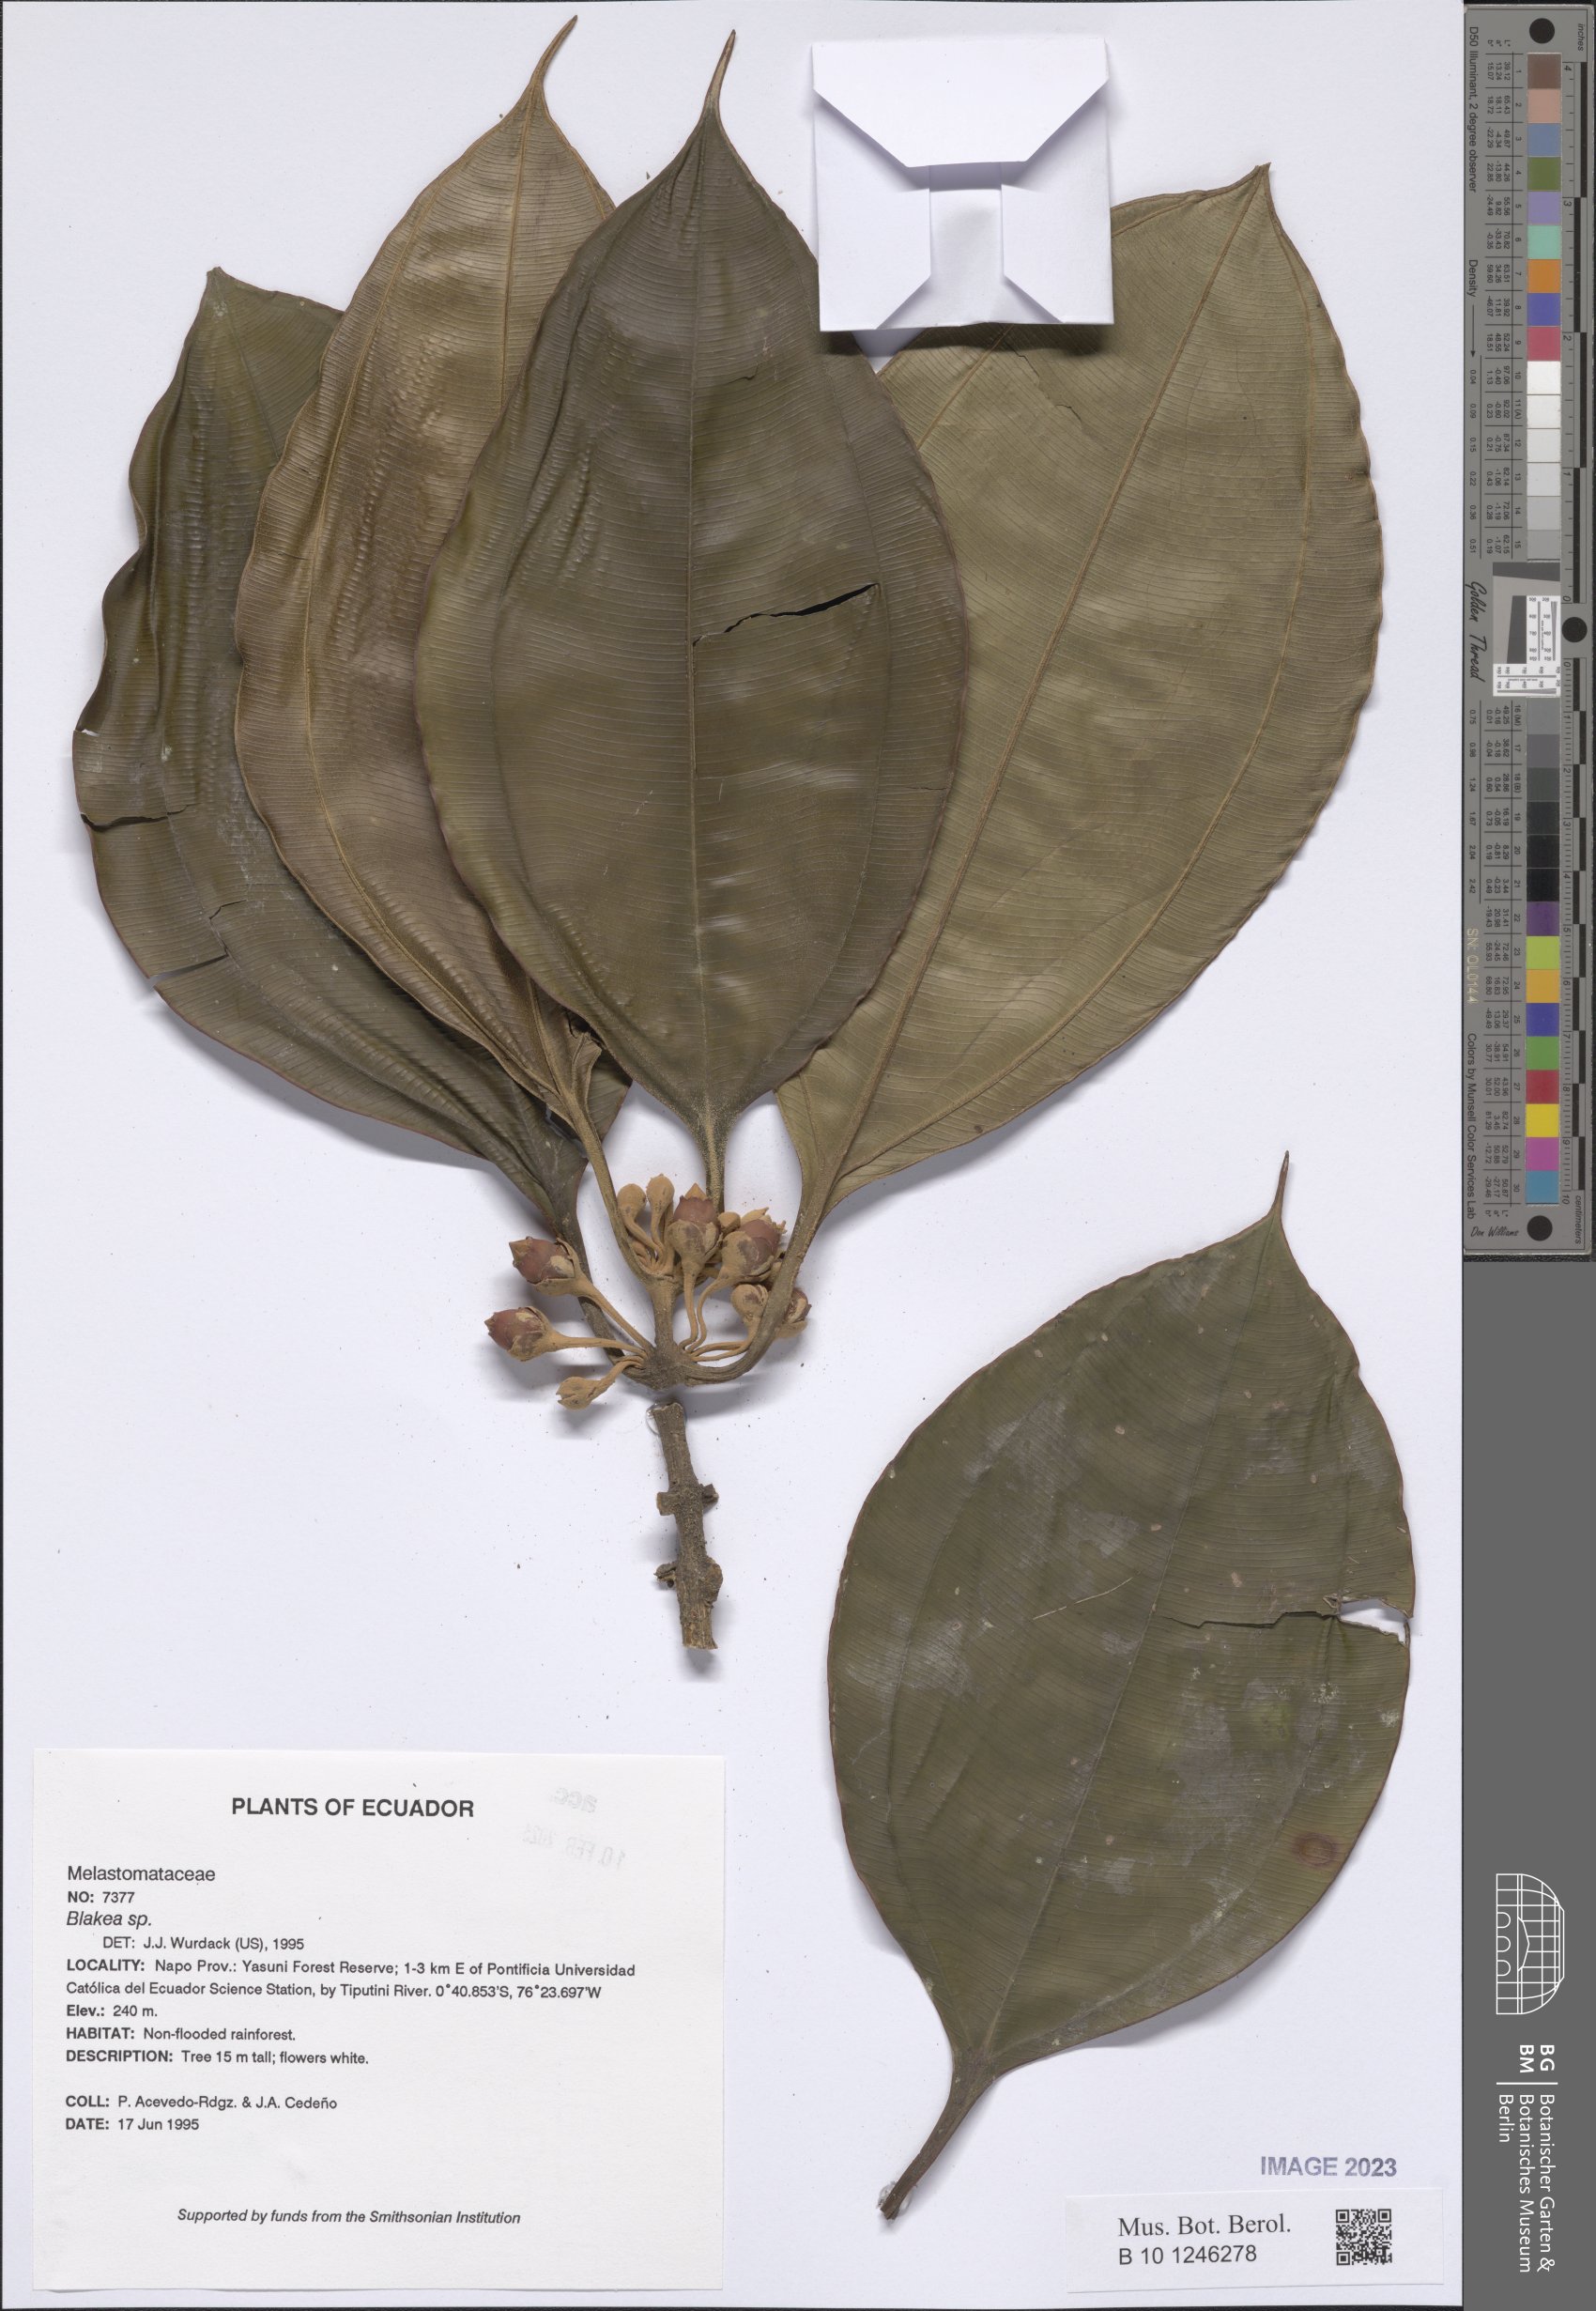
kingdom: Plantae
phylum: Tracheophyta
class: Magnoliopsida
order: Myrtales
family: Melastomataceae
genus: Blakea
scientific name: Blakea
